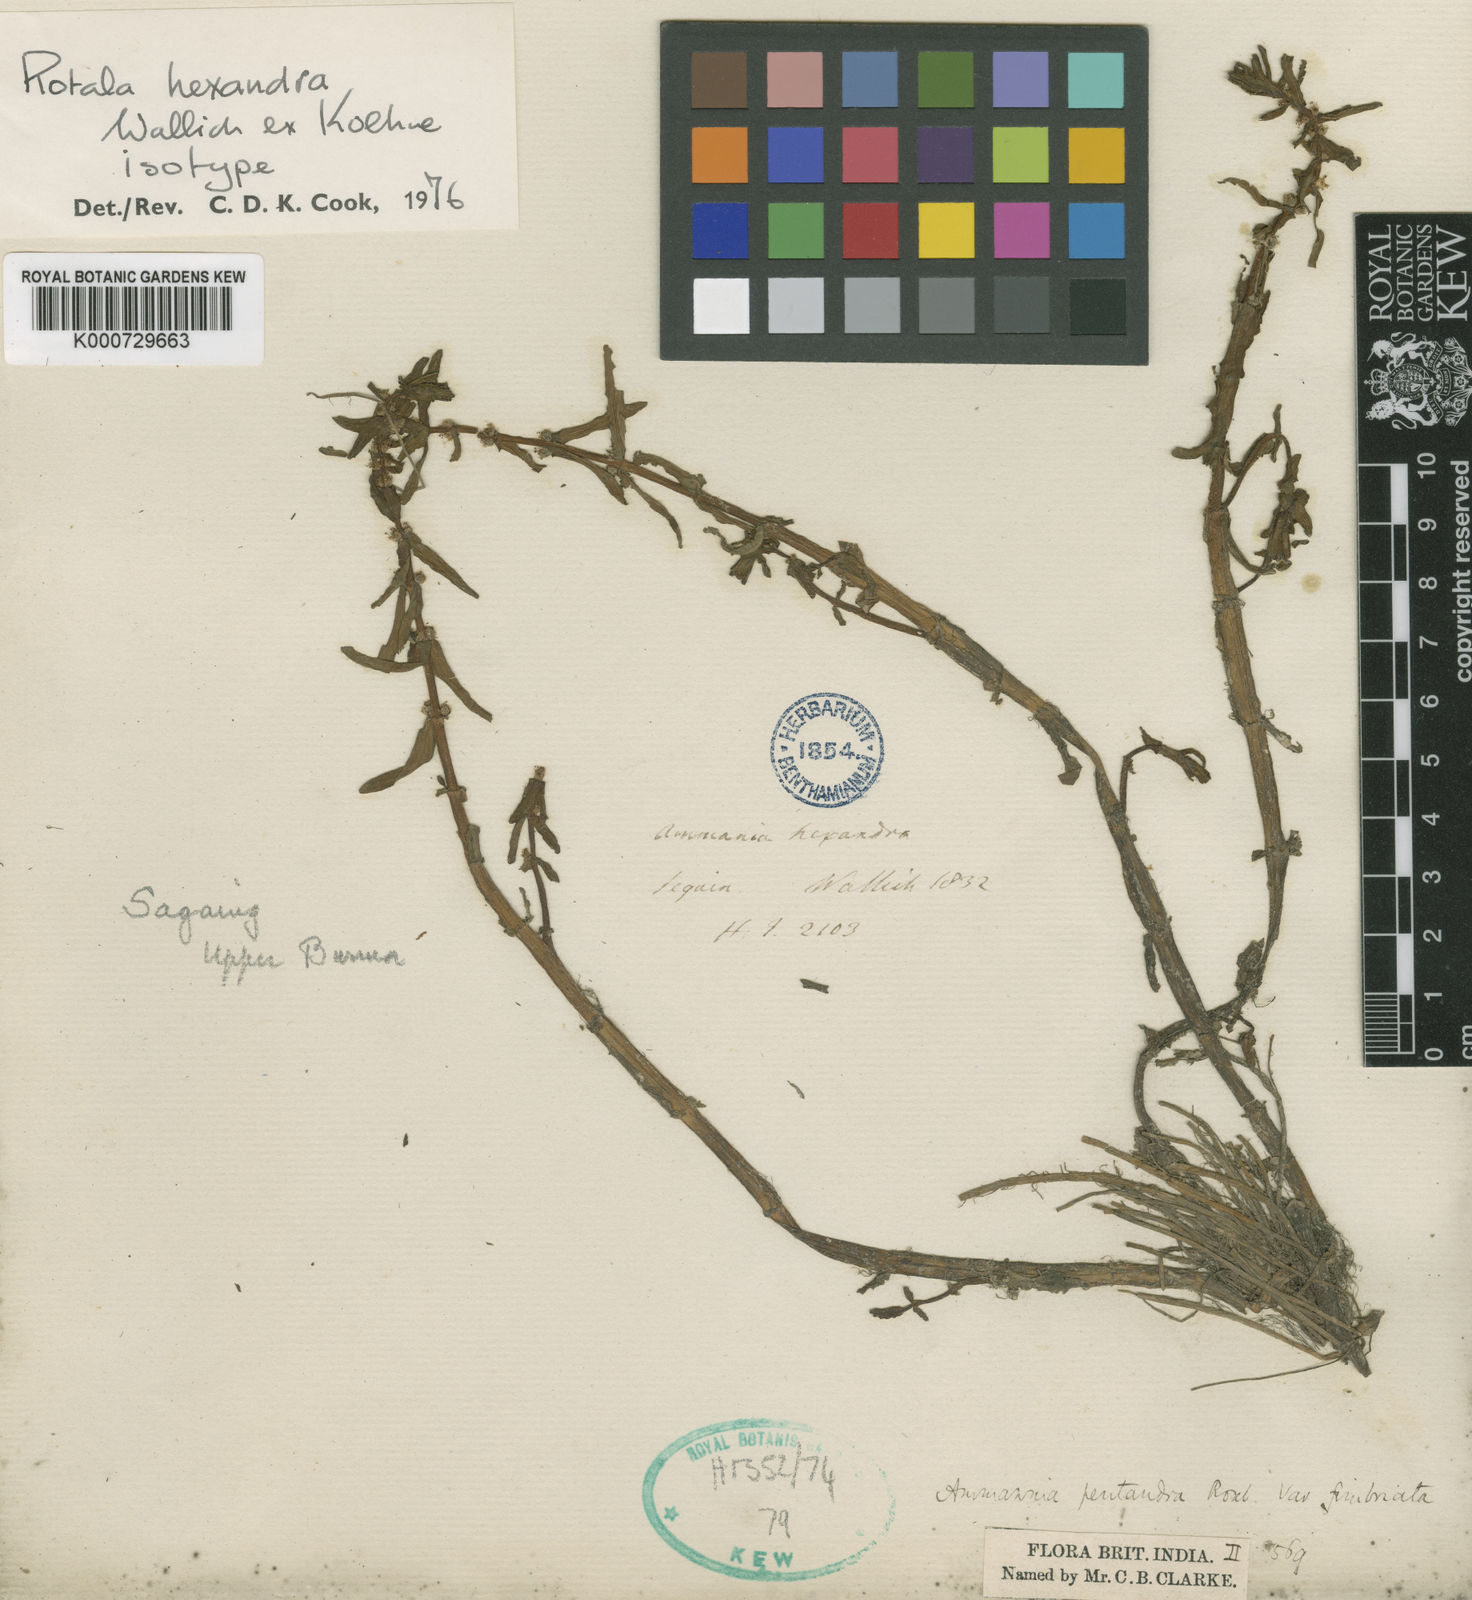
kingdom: Plantae
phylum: Tracheophyta
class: Magnoliopsida
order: Myrtales
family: Lythraceae
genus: Rotala
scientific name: Rotala hexandra
